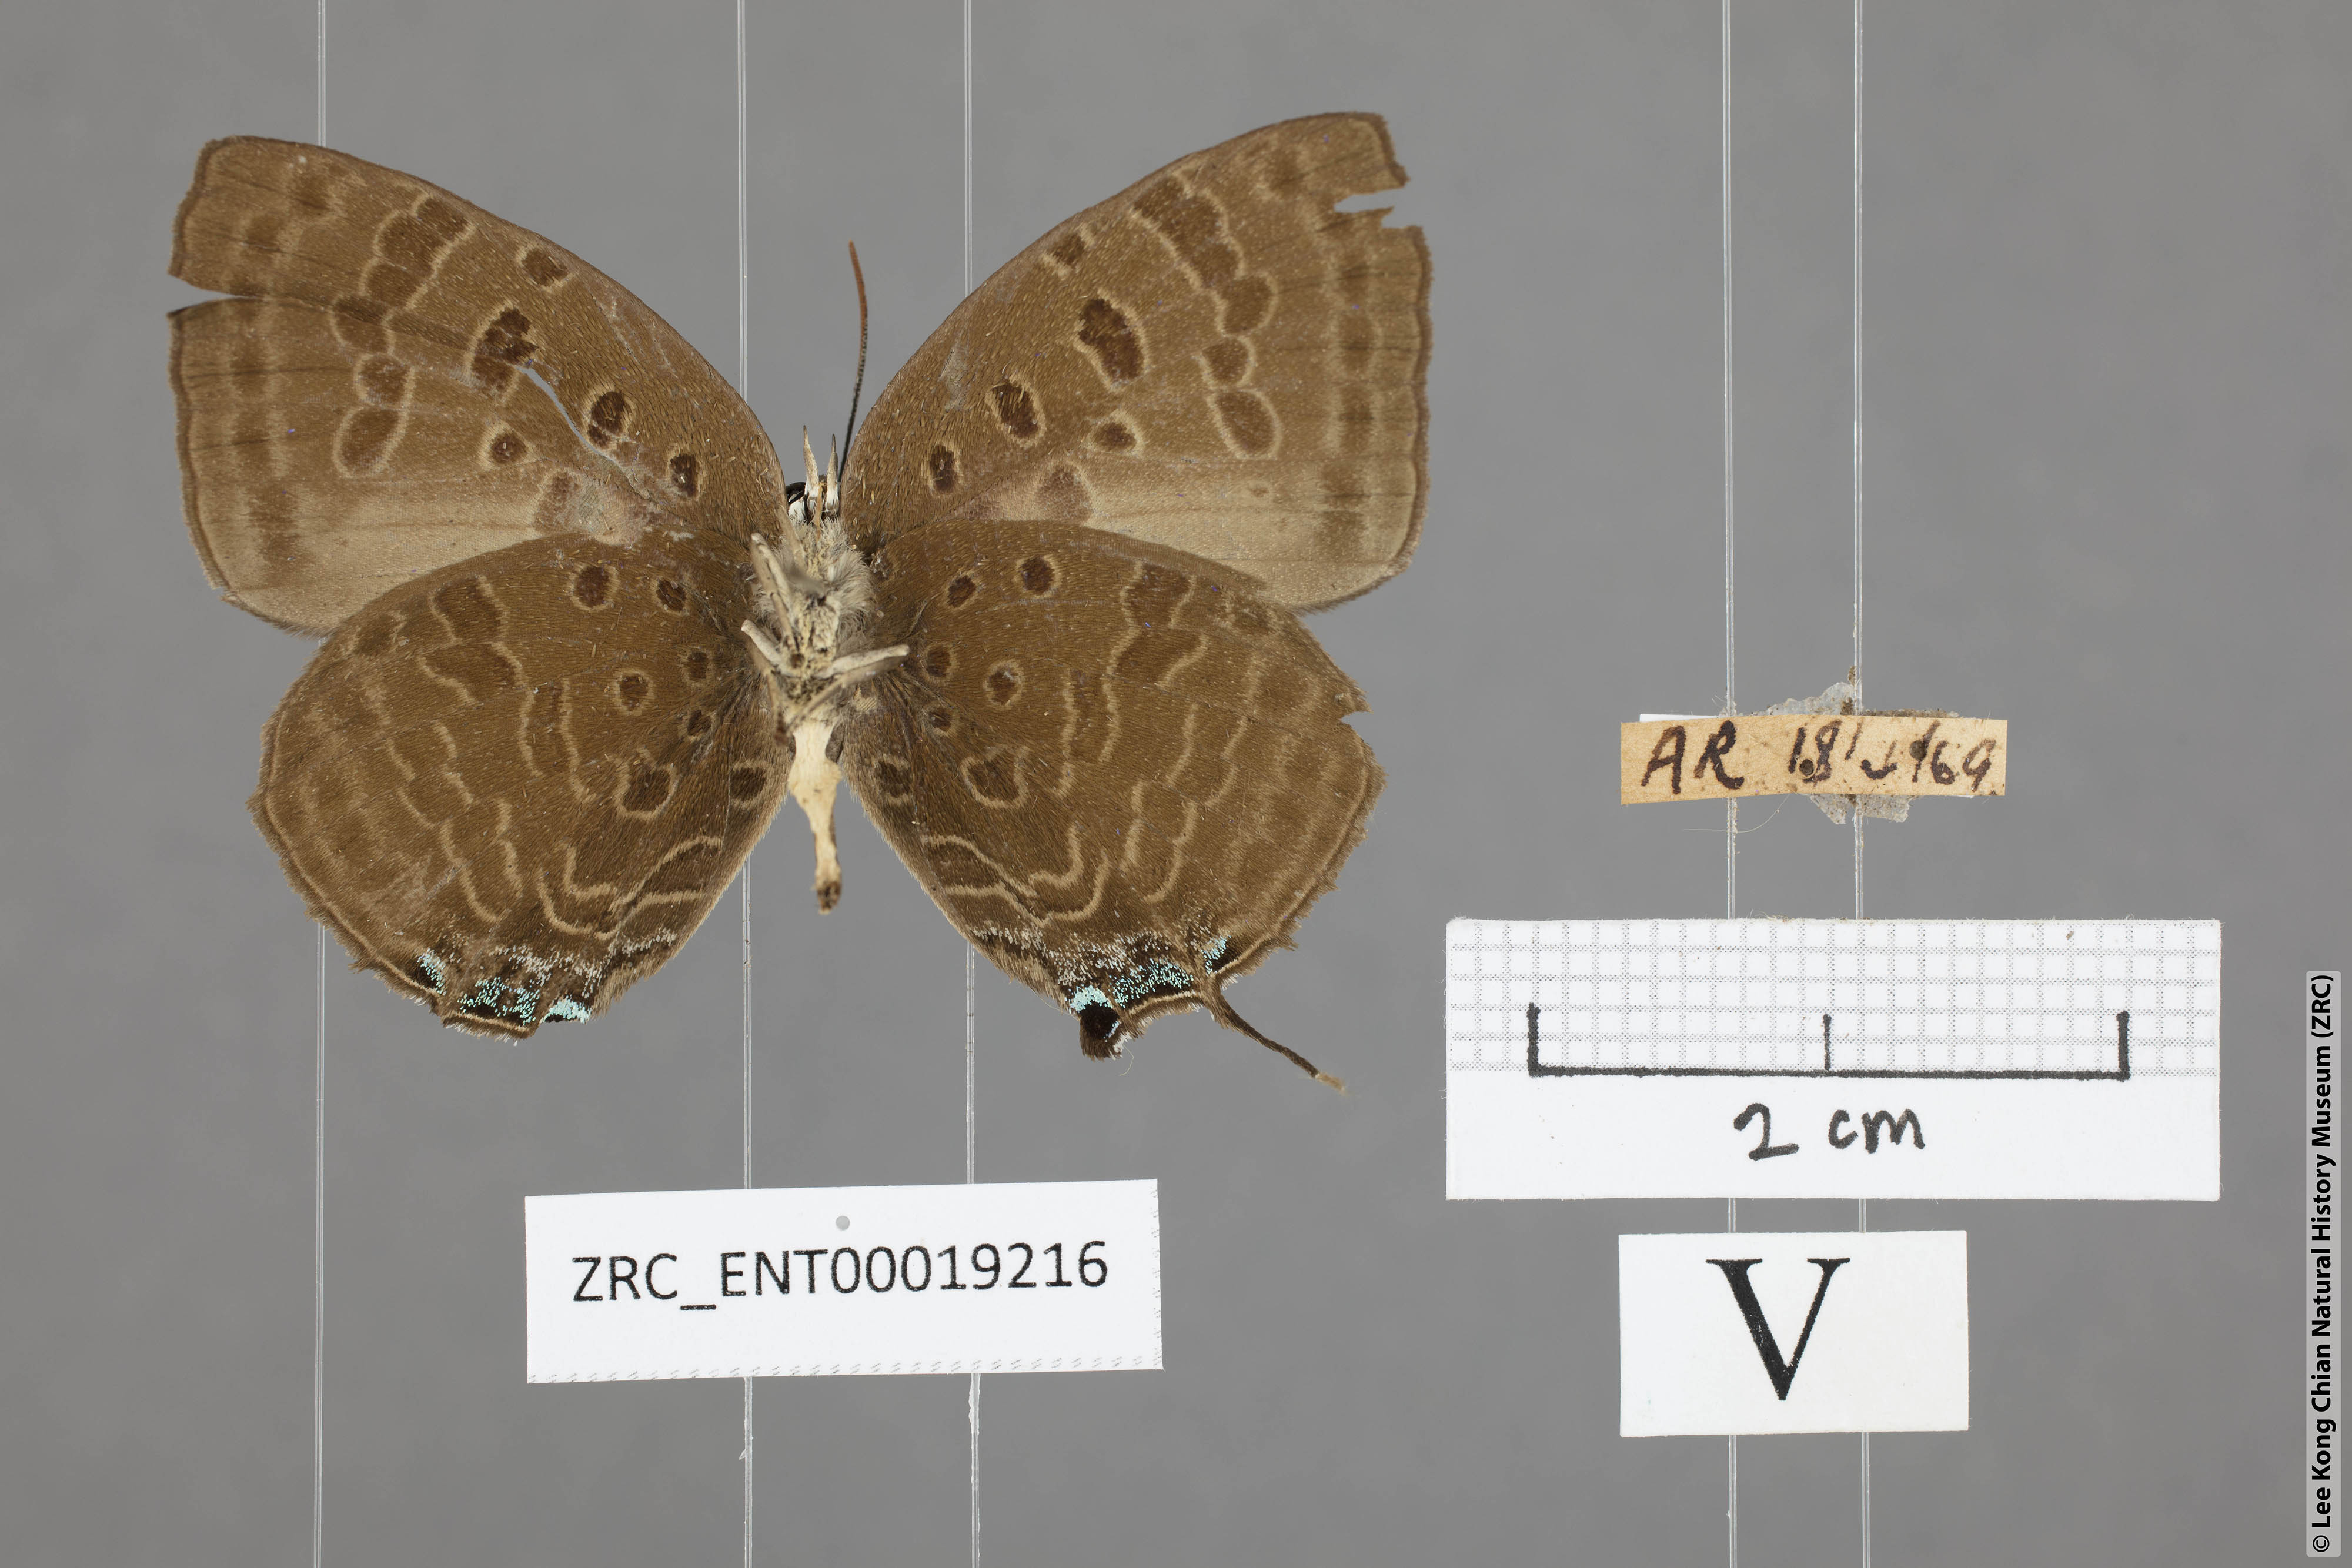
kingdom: Animalia
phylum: Arthropoda
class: Insecta
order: Lepidoptera
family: Lycaenidae
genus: Arhopala
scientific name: Arhopala athada
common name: Vinous oakblue
